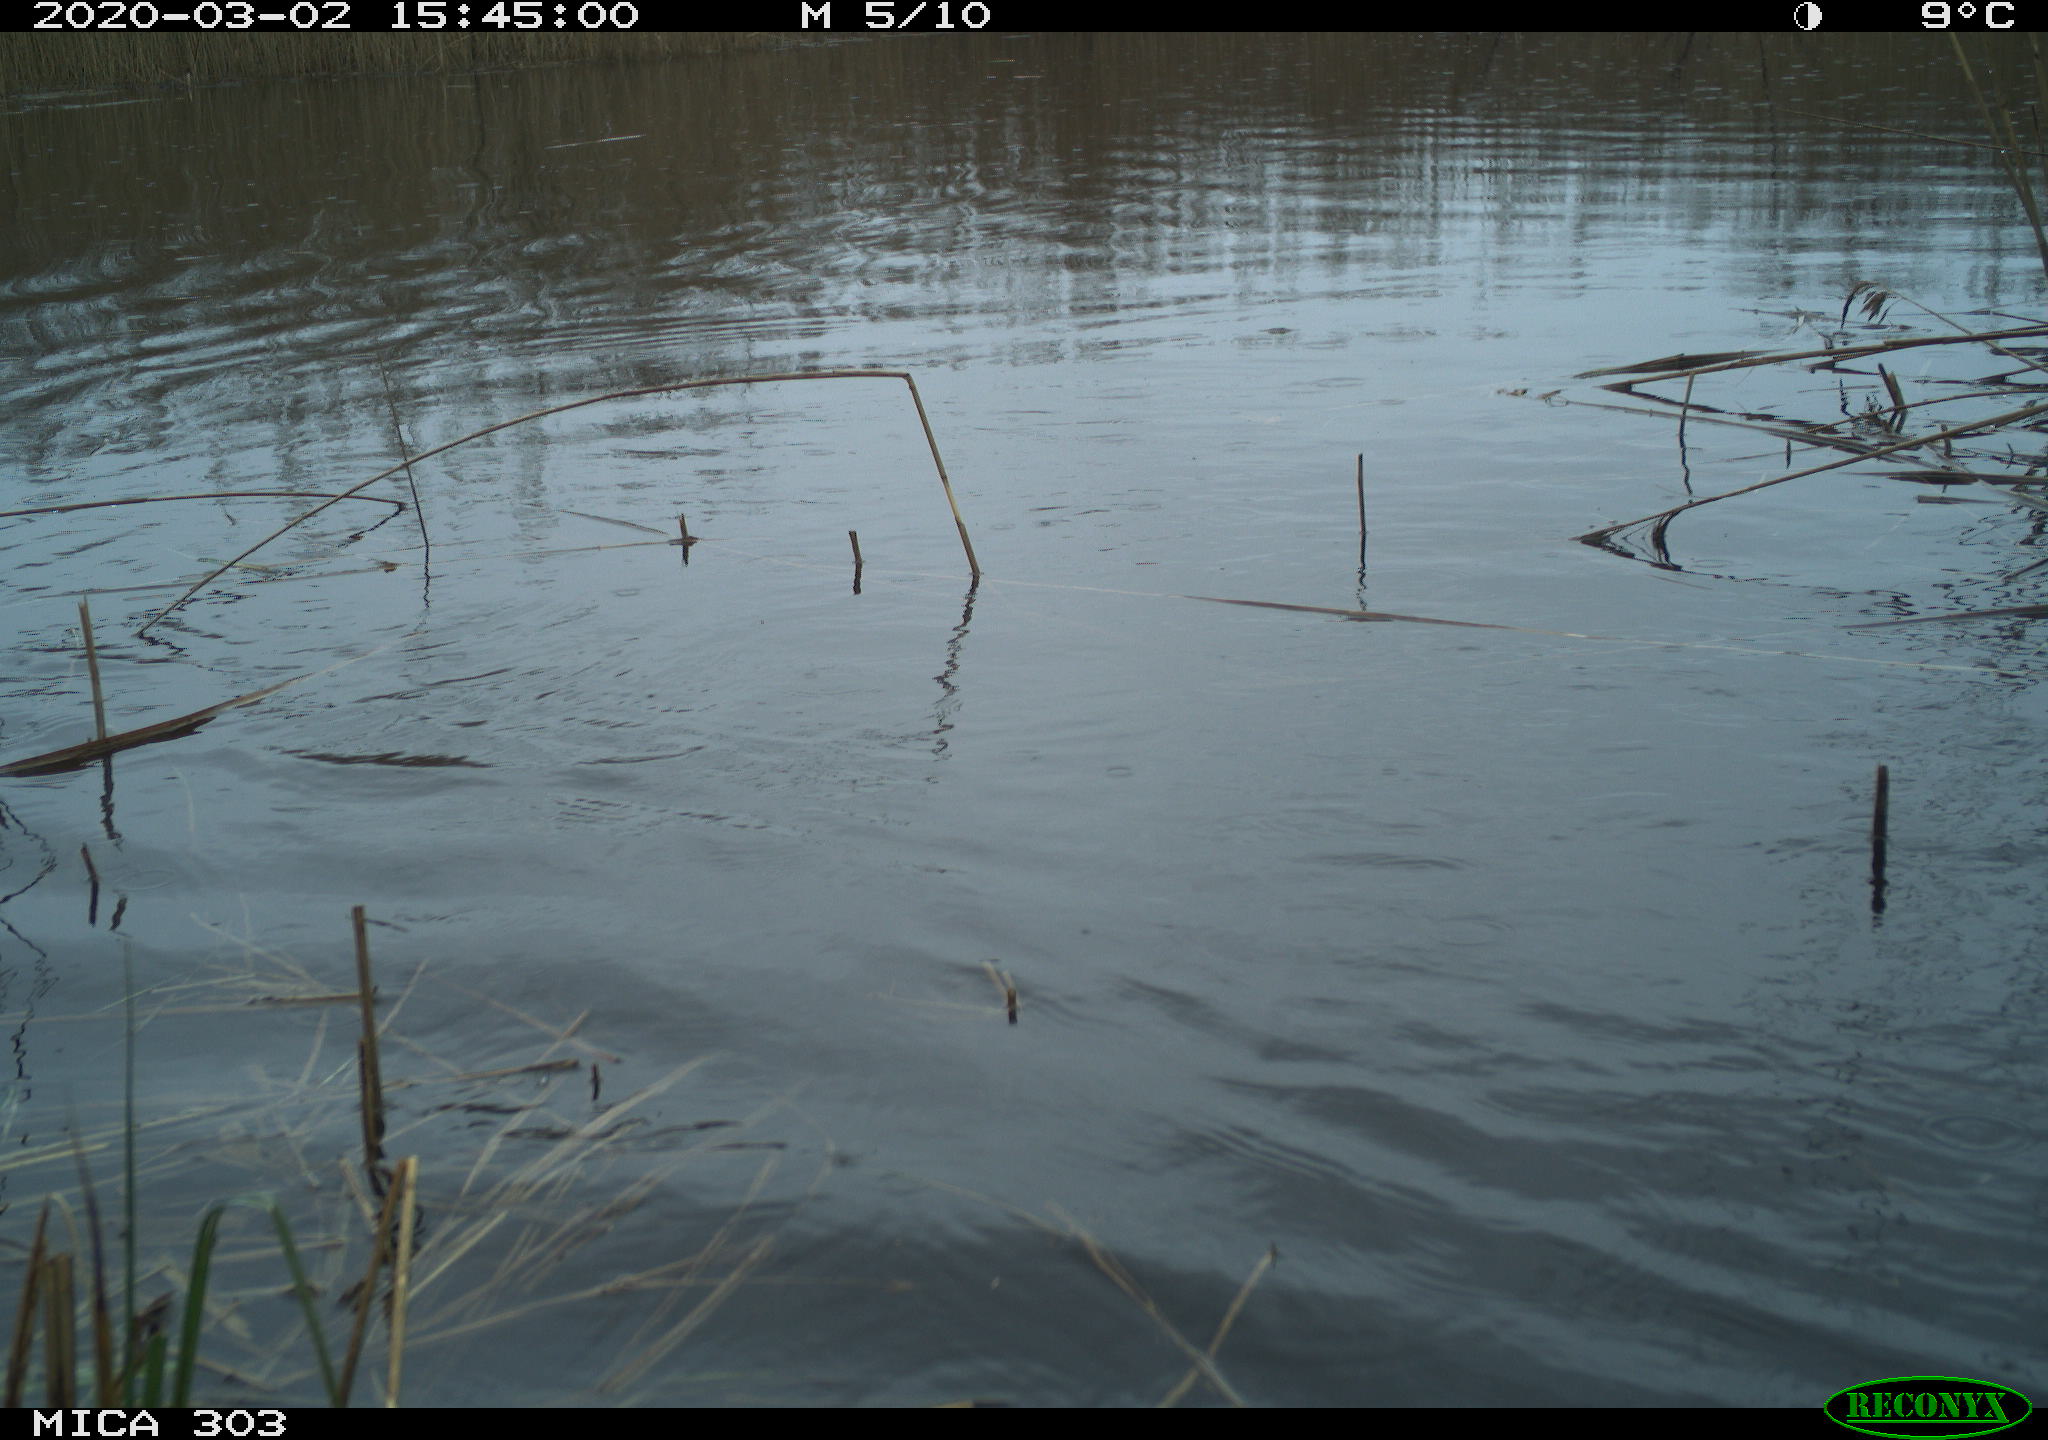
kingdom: Animalia
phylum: Chordata
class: Aves
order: Anseriformes
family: Anatidae
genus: Anser
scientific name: Anser anser
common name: Greylag goose
